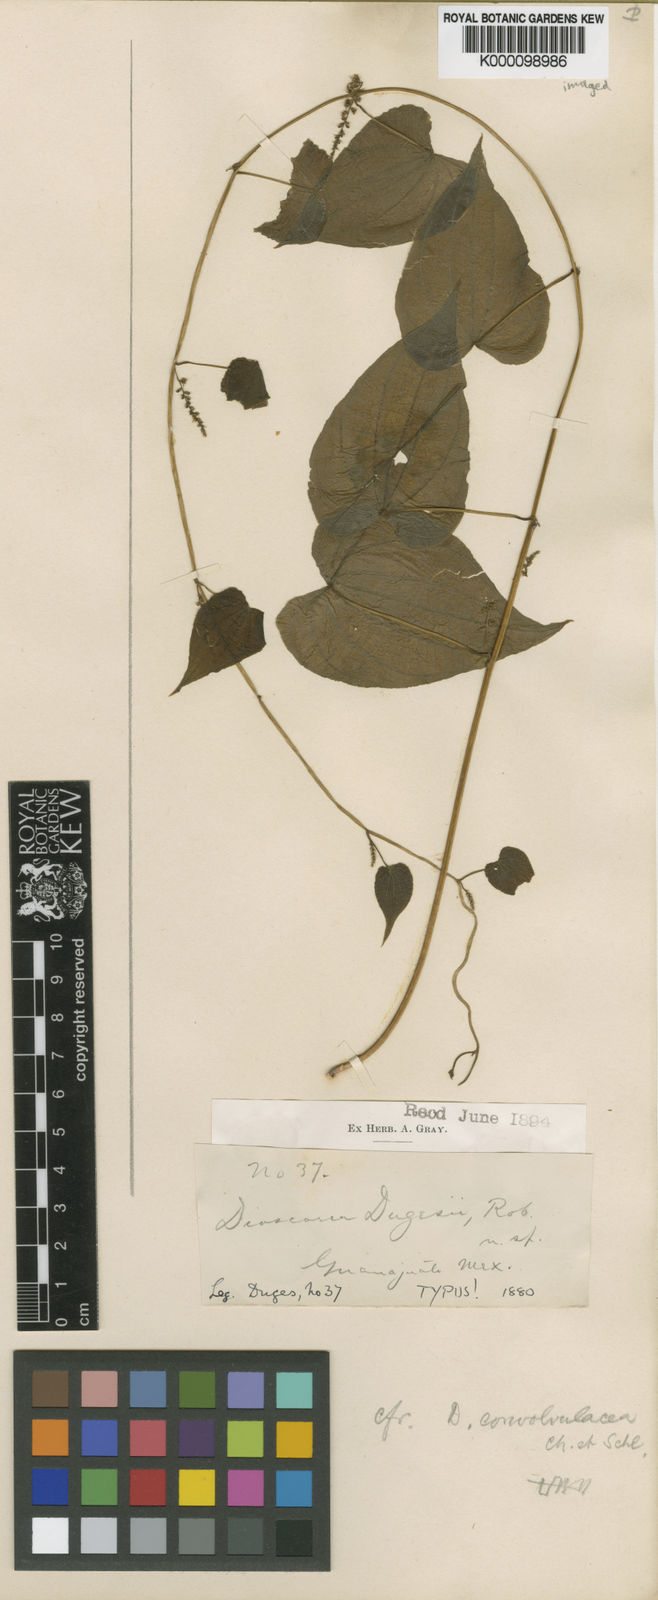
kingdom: Plantae
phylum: Tracheophyta
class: Liliopsida
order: Dioscoreales
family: Dioscoreaceae
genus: Dioscorea
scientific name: Dioscorea dugesii
